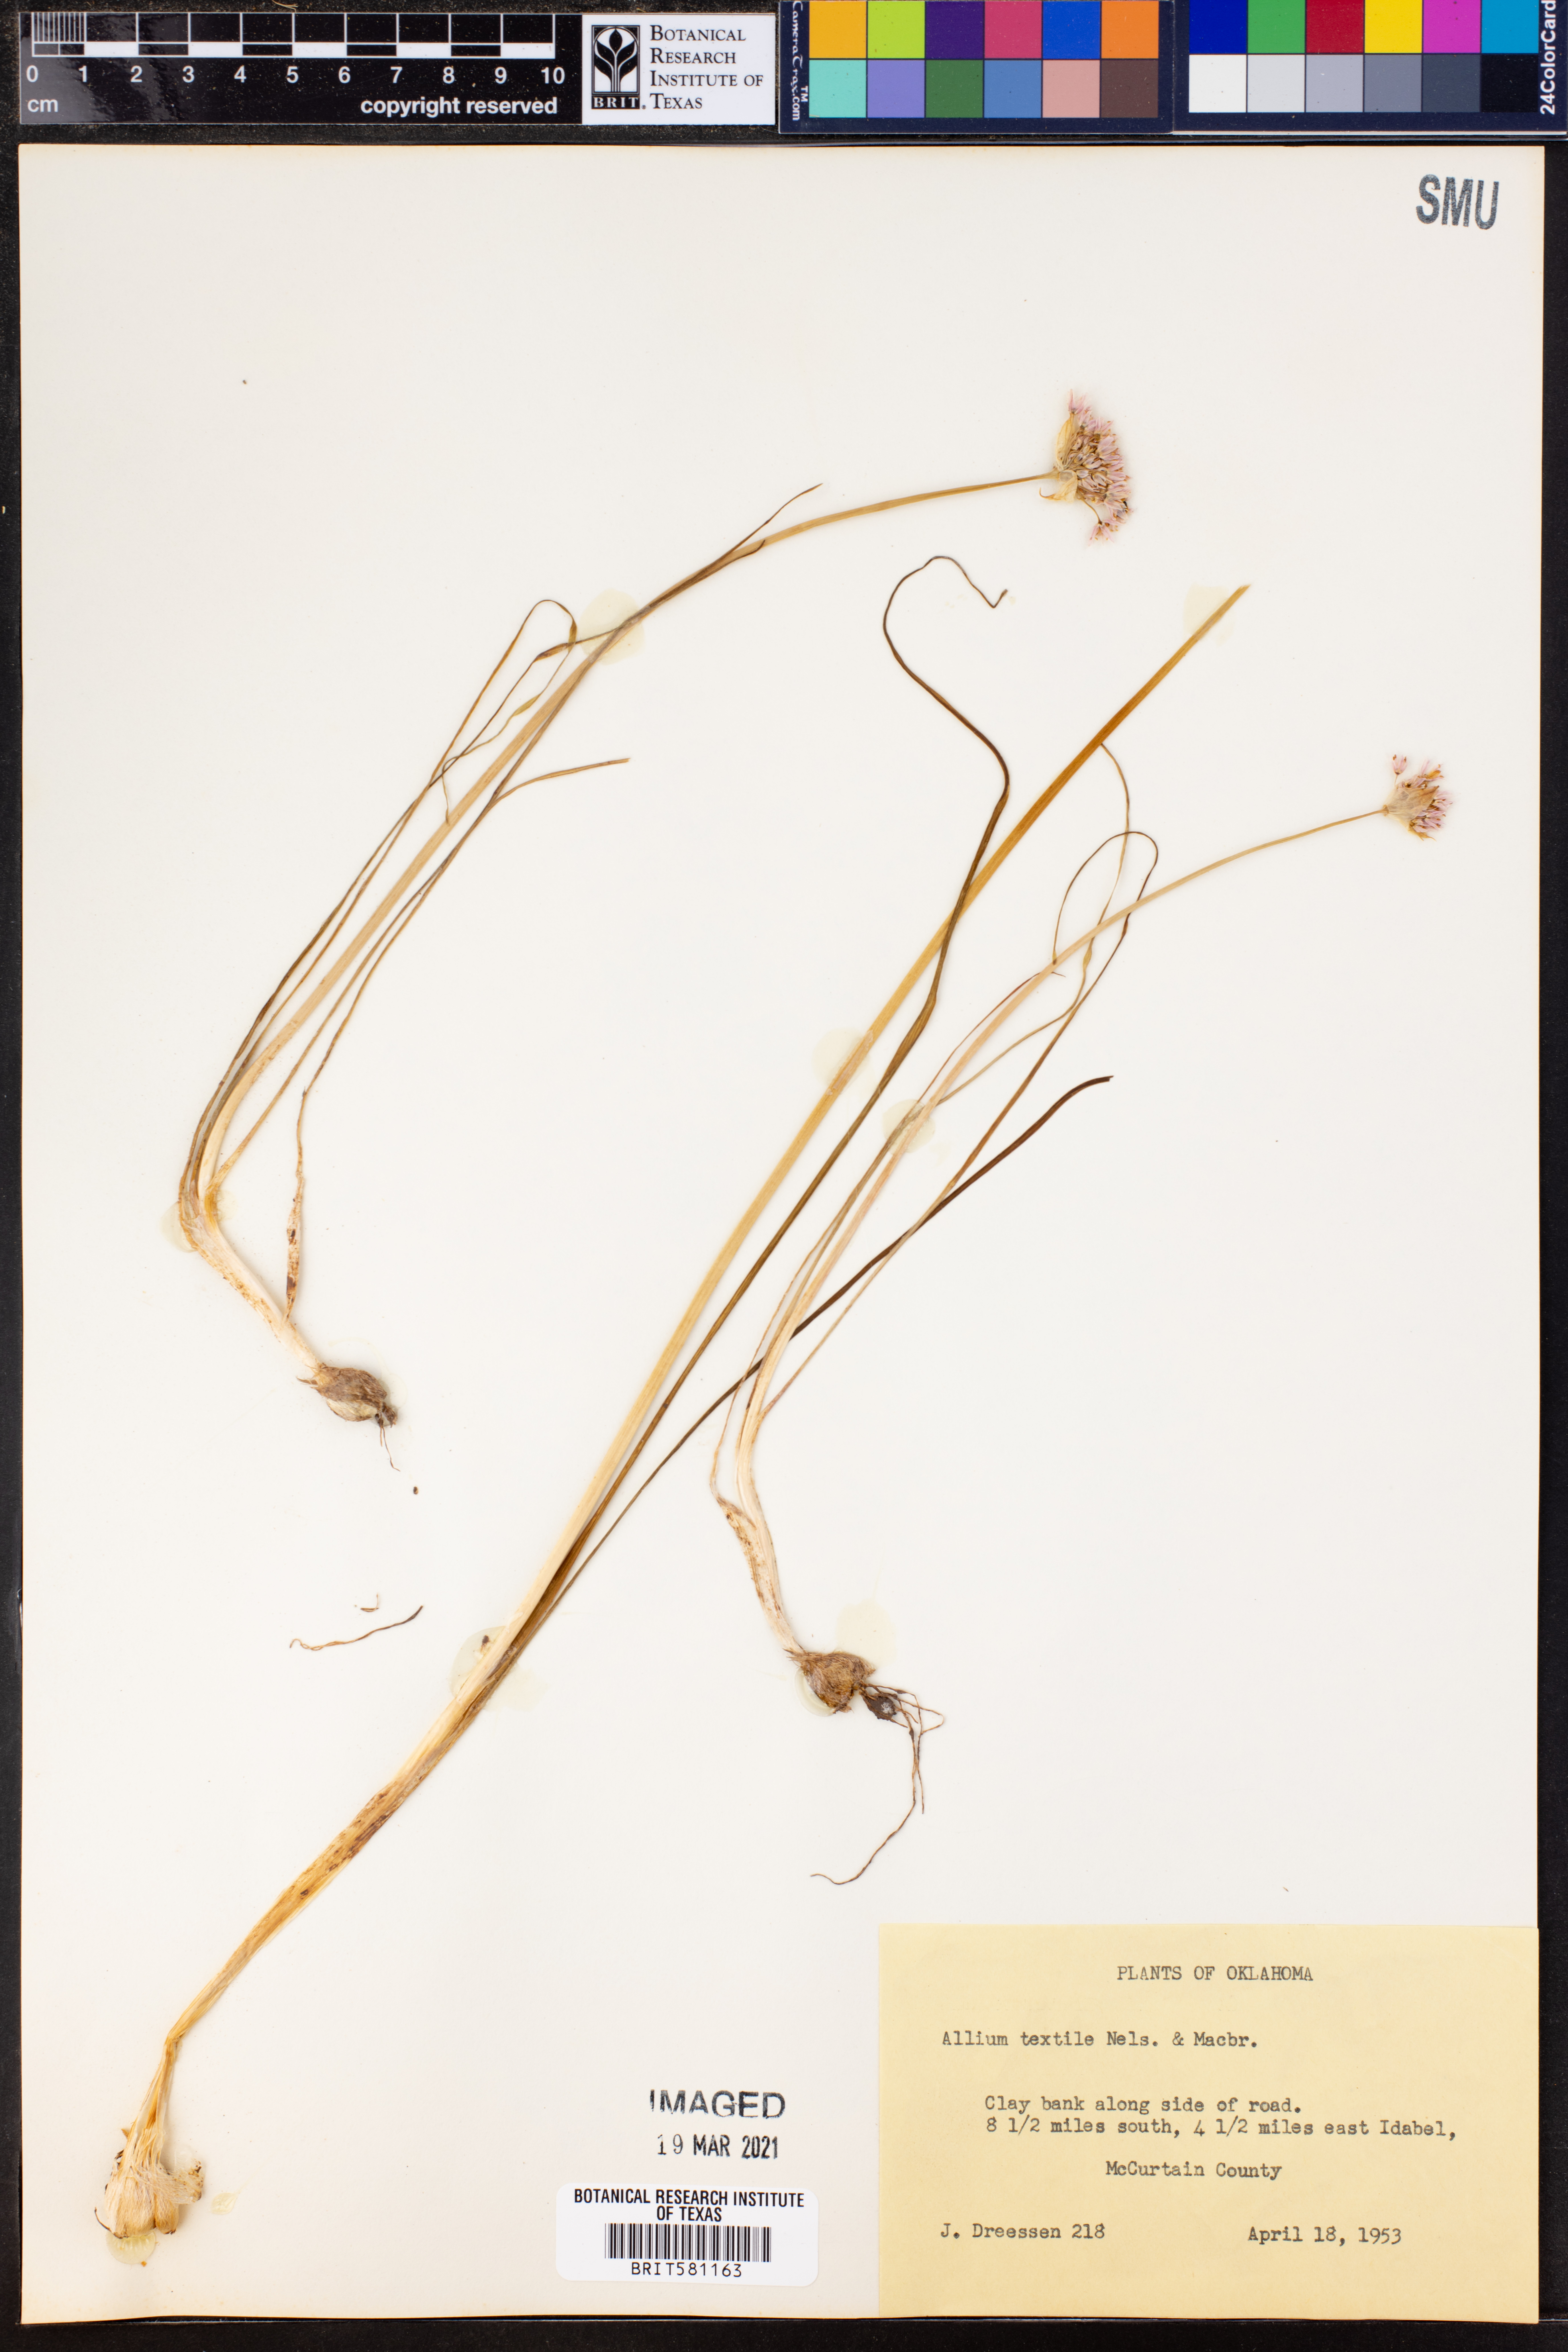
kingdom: Plantae
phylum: Tracheophyta
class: Liliopsida
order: Asparagales
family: Amaryllidaceae
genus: Allium
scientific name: Allium textile
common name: Prairie onion
